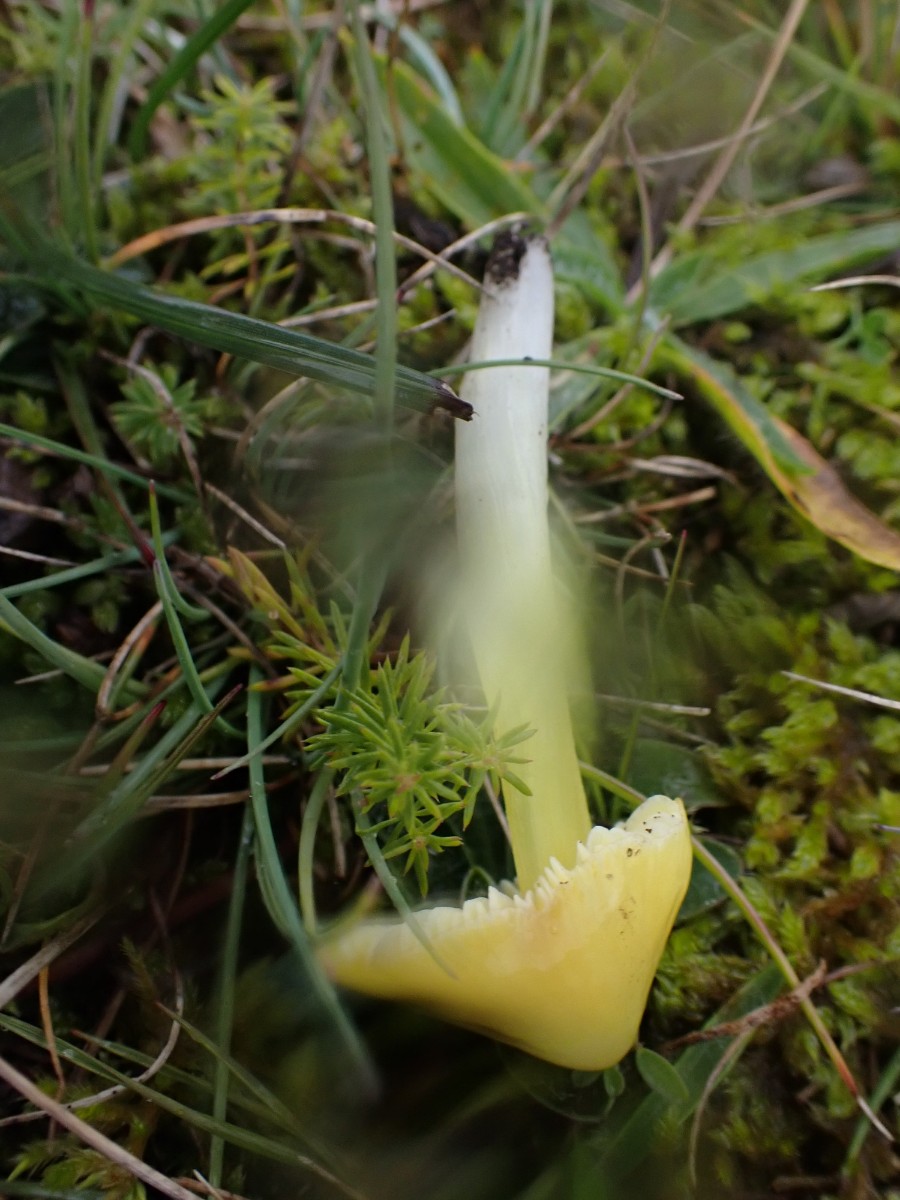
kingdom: Fungi
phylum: Basidiomycota
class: Agaricomycetes
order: Agaricales
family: Hygrophoraceae
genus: Hygrocybe
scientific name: Hygrocybe conica
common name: kegle-vokshat
